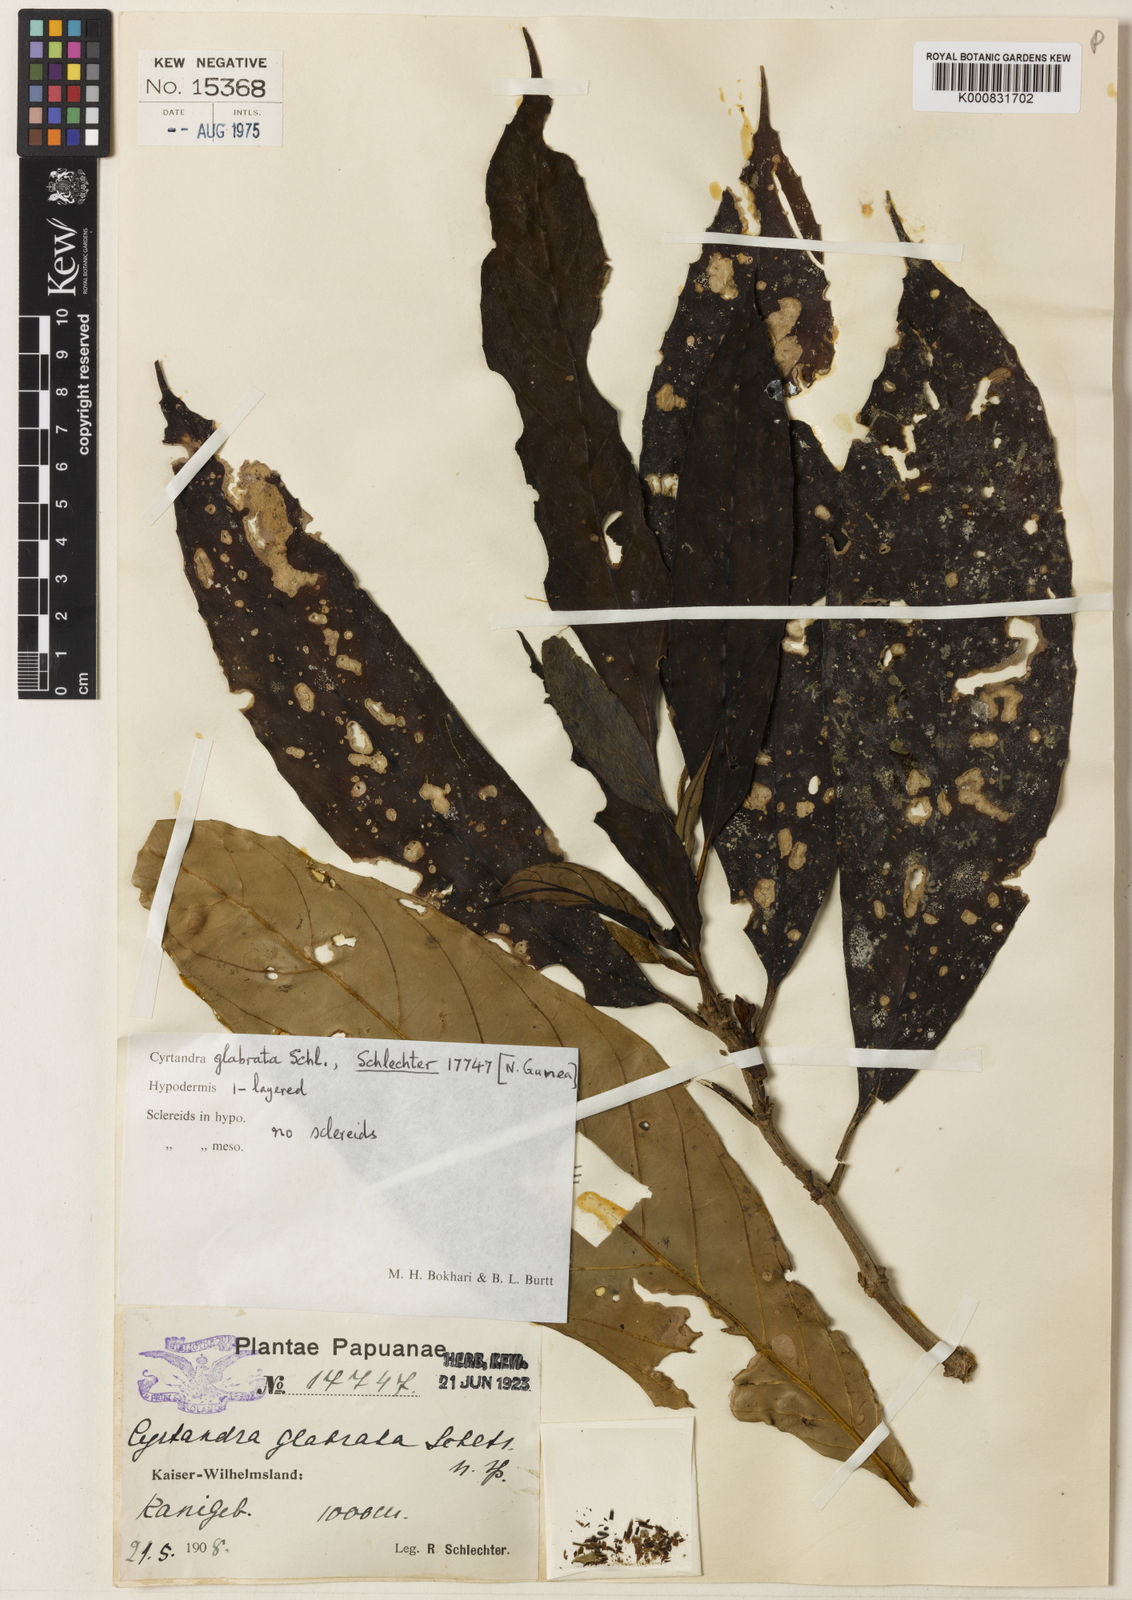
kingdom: Plantae
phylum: Tracheophyta
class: Magnoliopsida
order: Lamiales
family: Gesneriaceae
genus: Cyrtandra
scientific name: Cyrtandra glabrata
